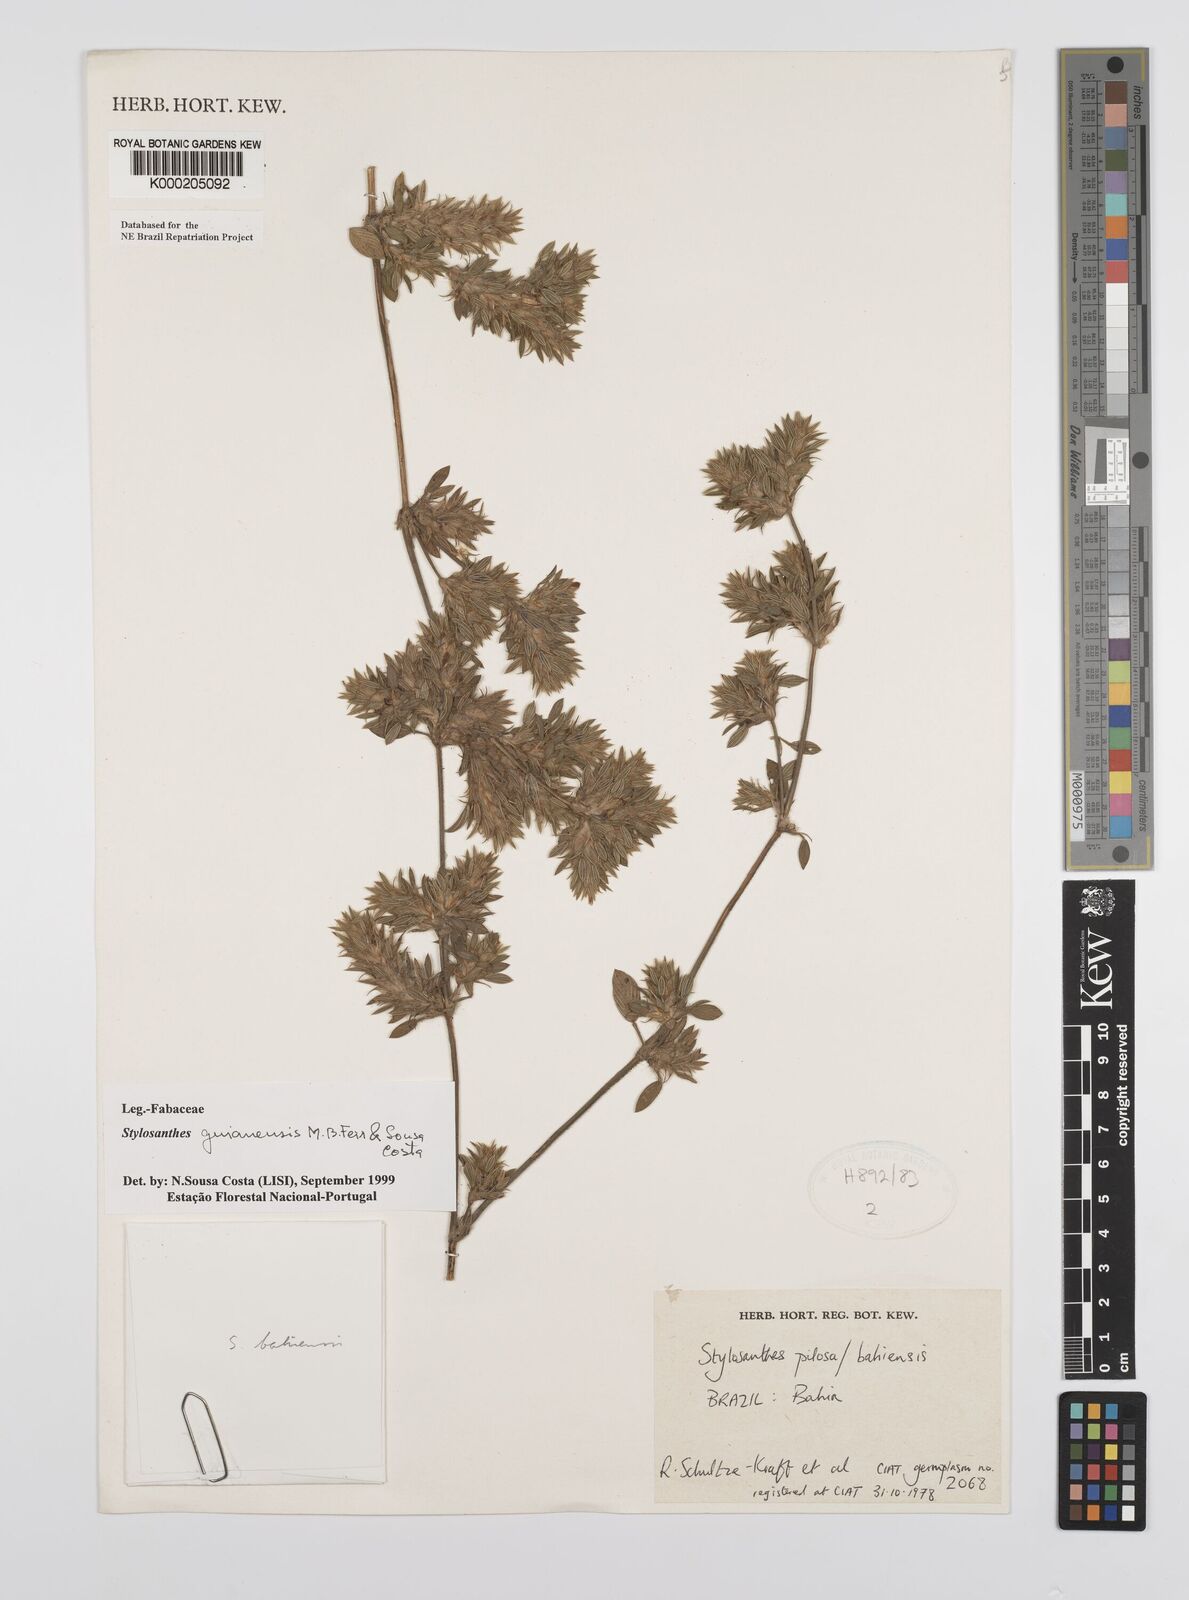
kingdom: Plantae
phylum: Tracheophyta
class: Magnoliopsida
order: Fabales
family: Fabaceae
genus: Stylosanthes
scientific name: Stylosanthes guianensis
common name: Pencil flower
